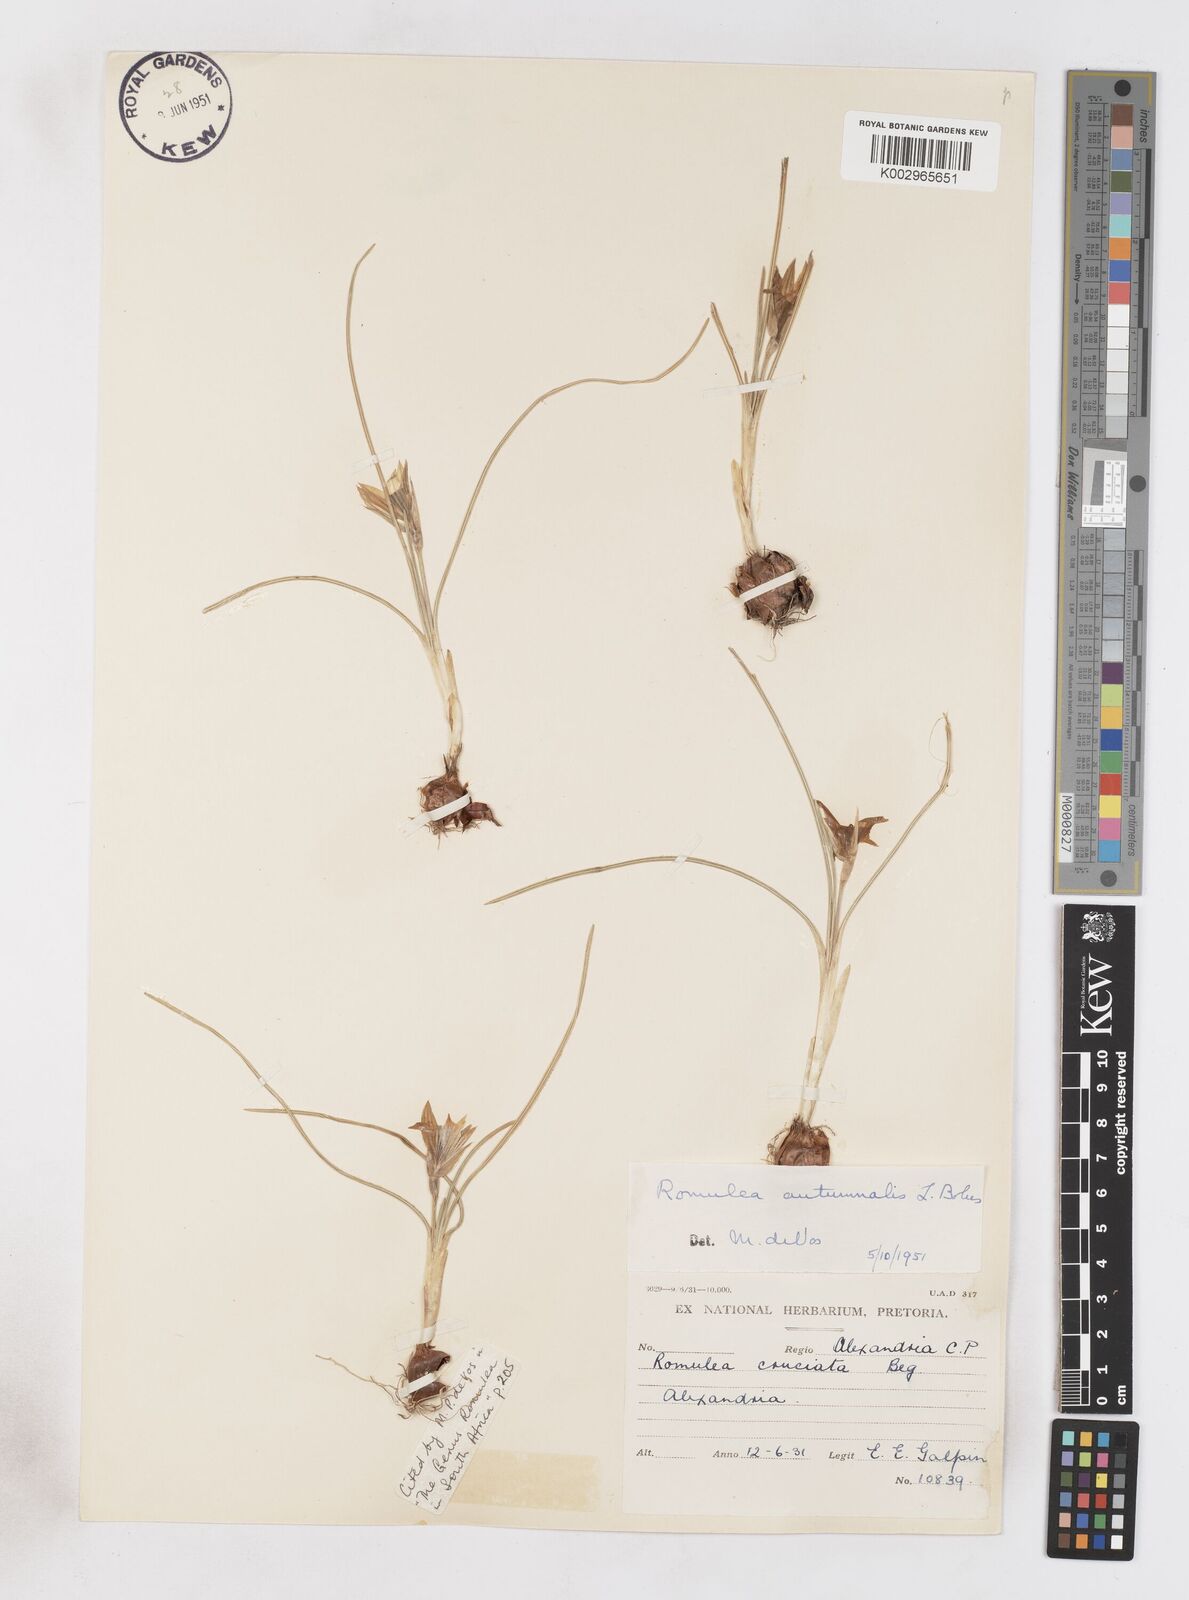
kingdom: Plantae
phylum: Tracheophyta
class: Liliopsida
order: Asparagales
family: Iridaceae
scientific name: Iridaceae
